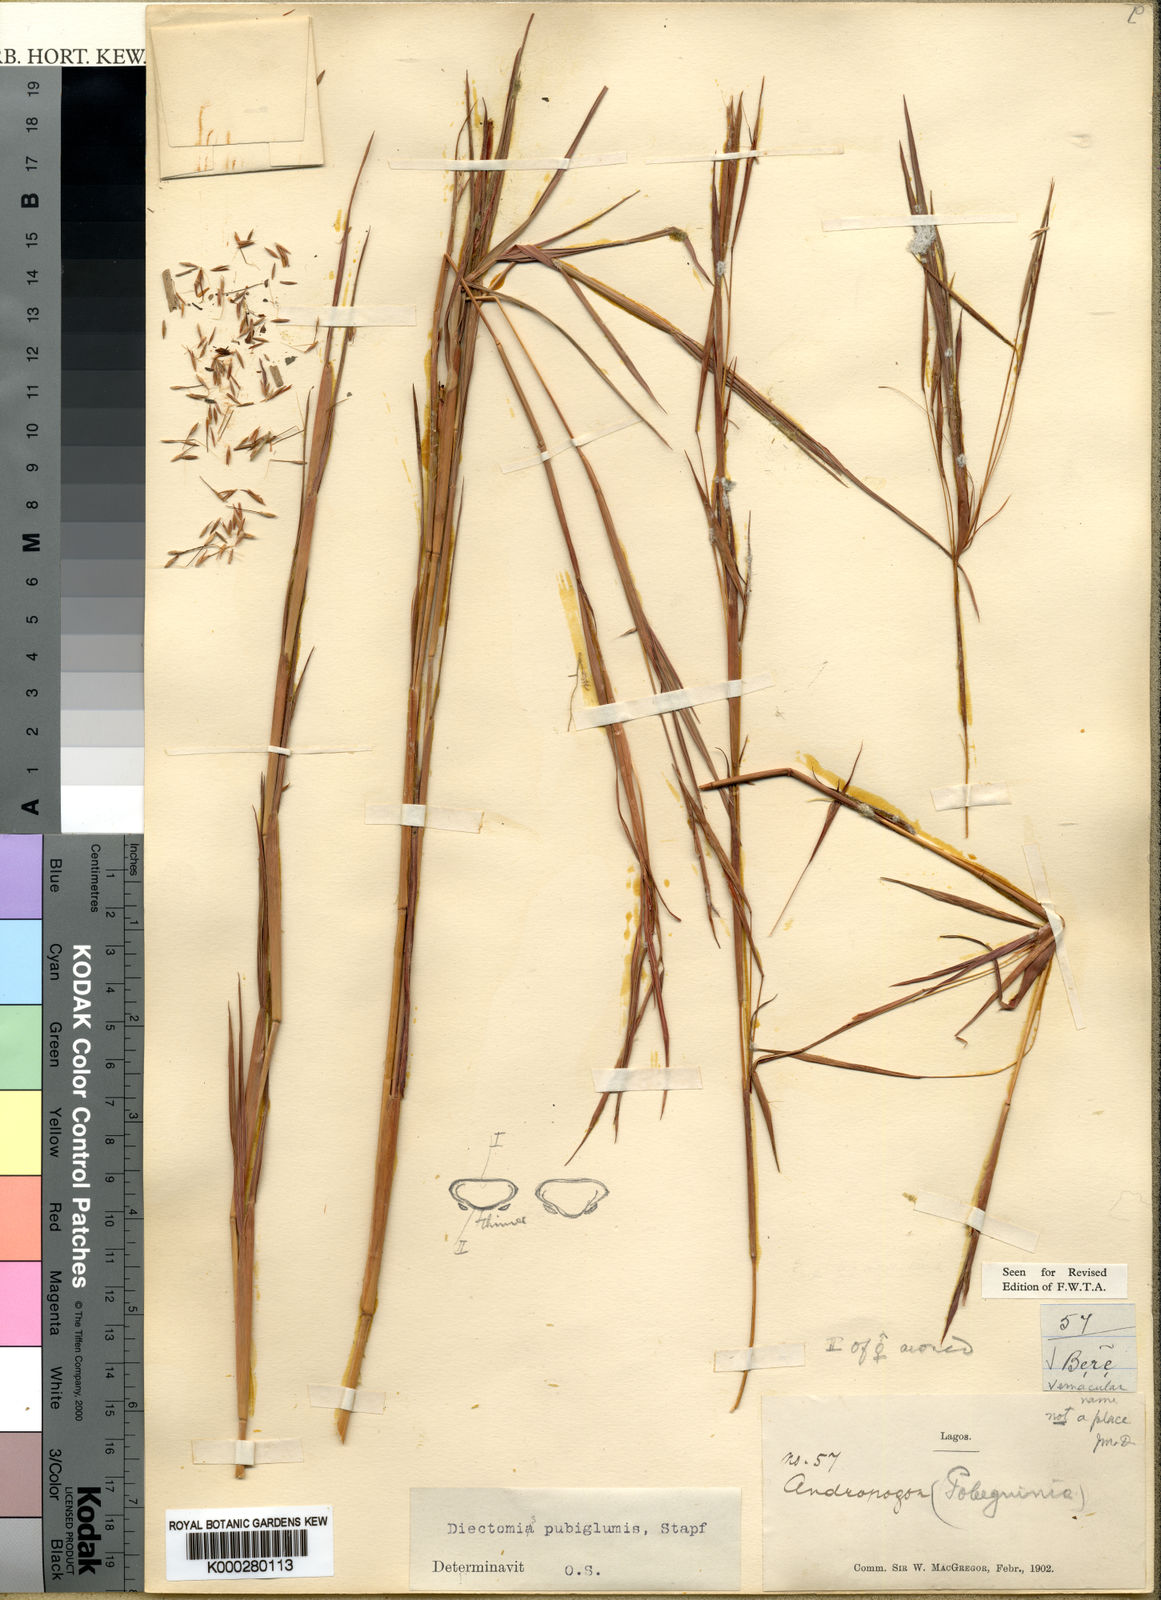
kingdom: Plantae
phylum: Tracheophyta
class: Liliopsida
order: Poales
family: Poaceae
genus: Anadelphia
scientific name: Anadelphia leptocoma
